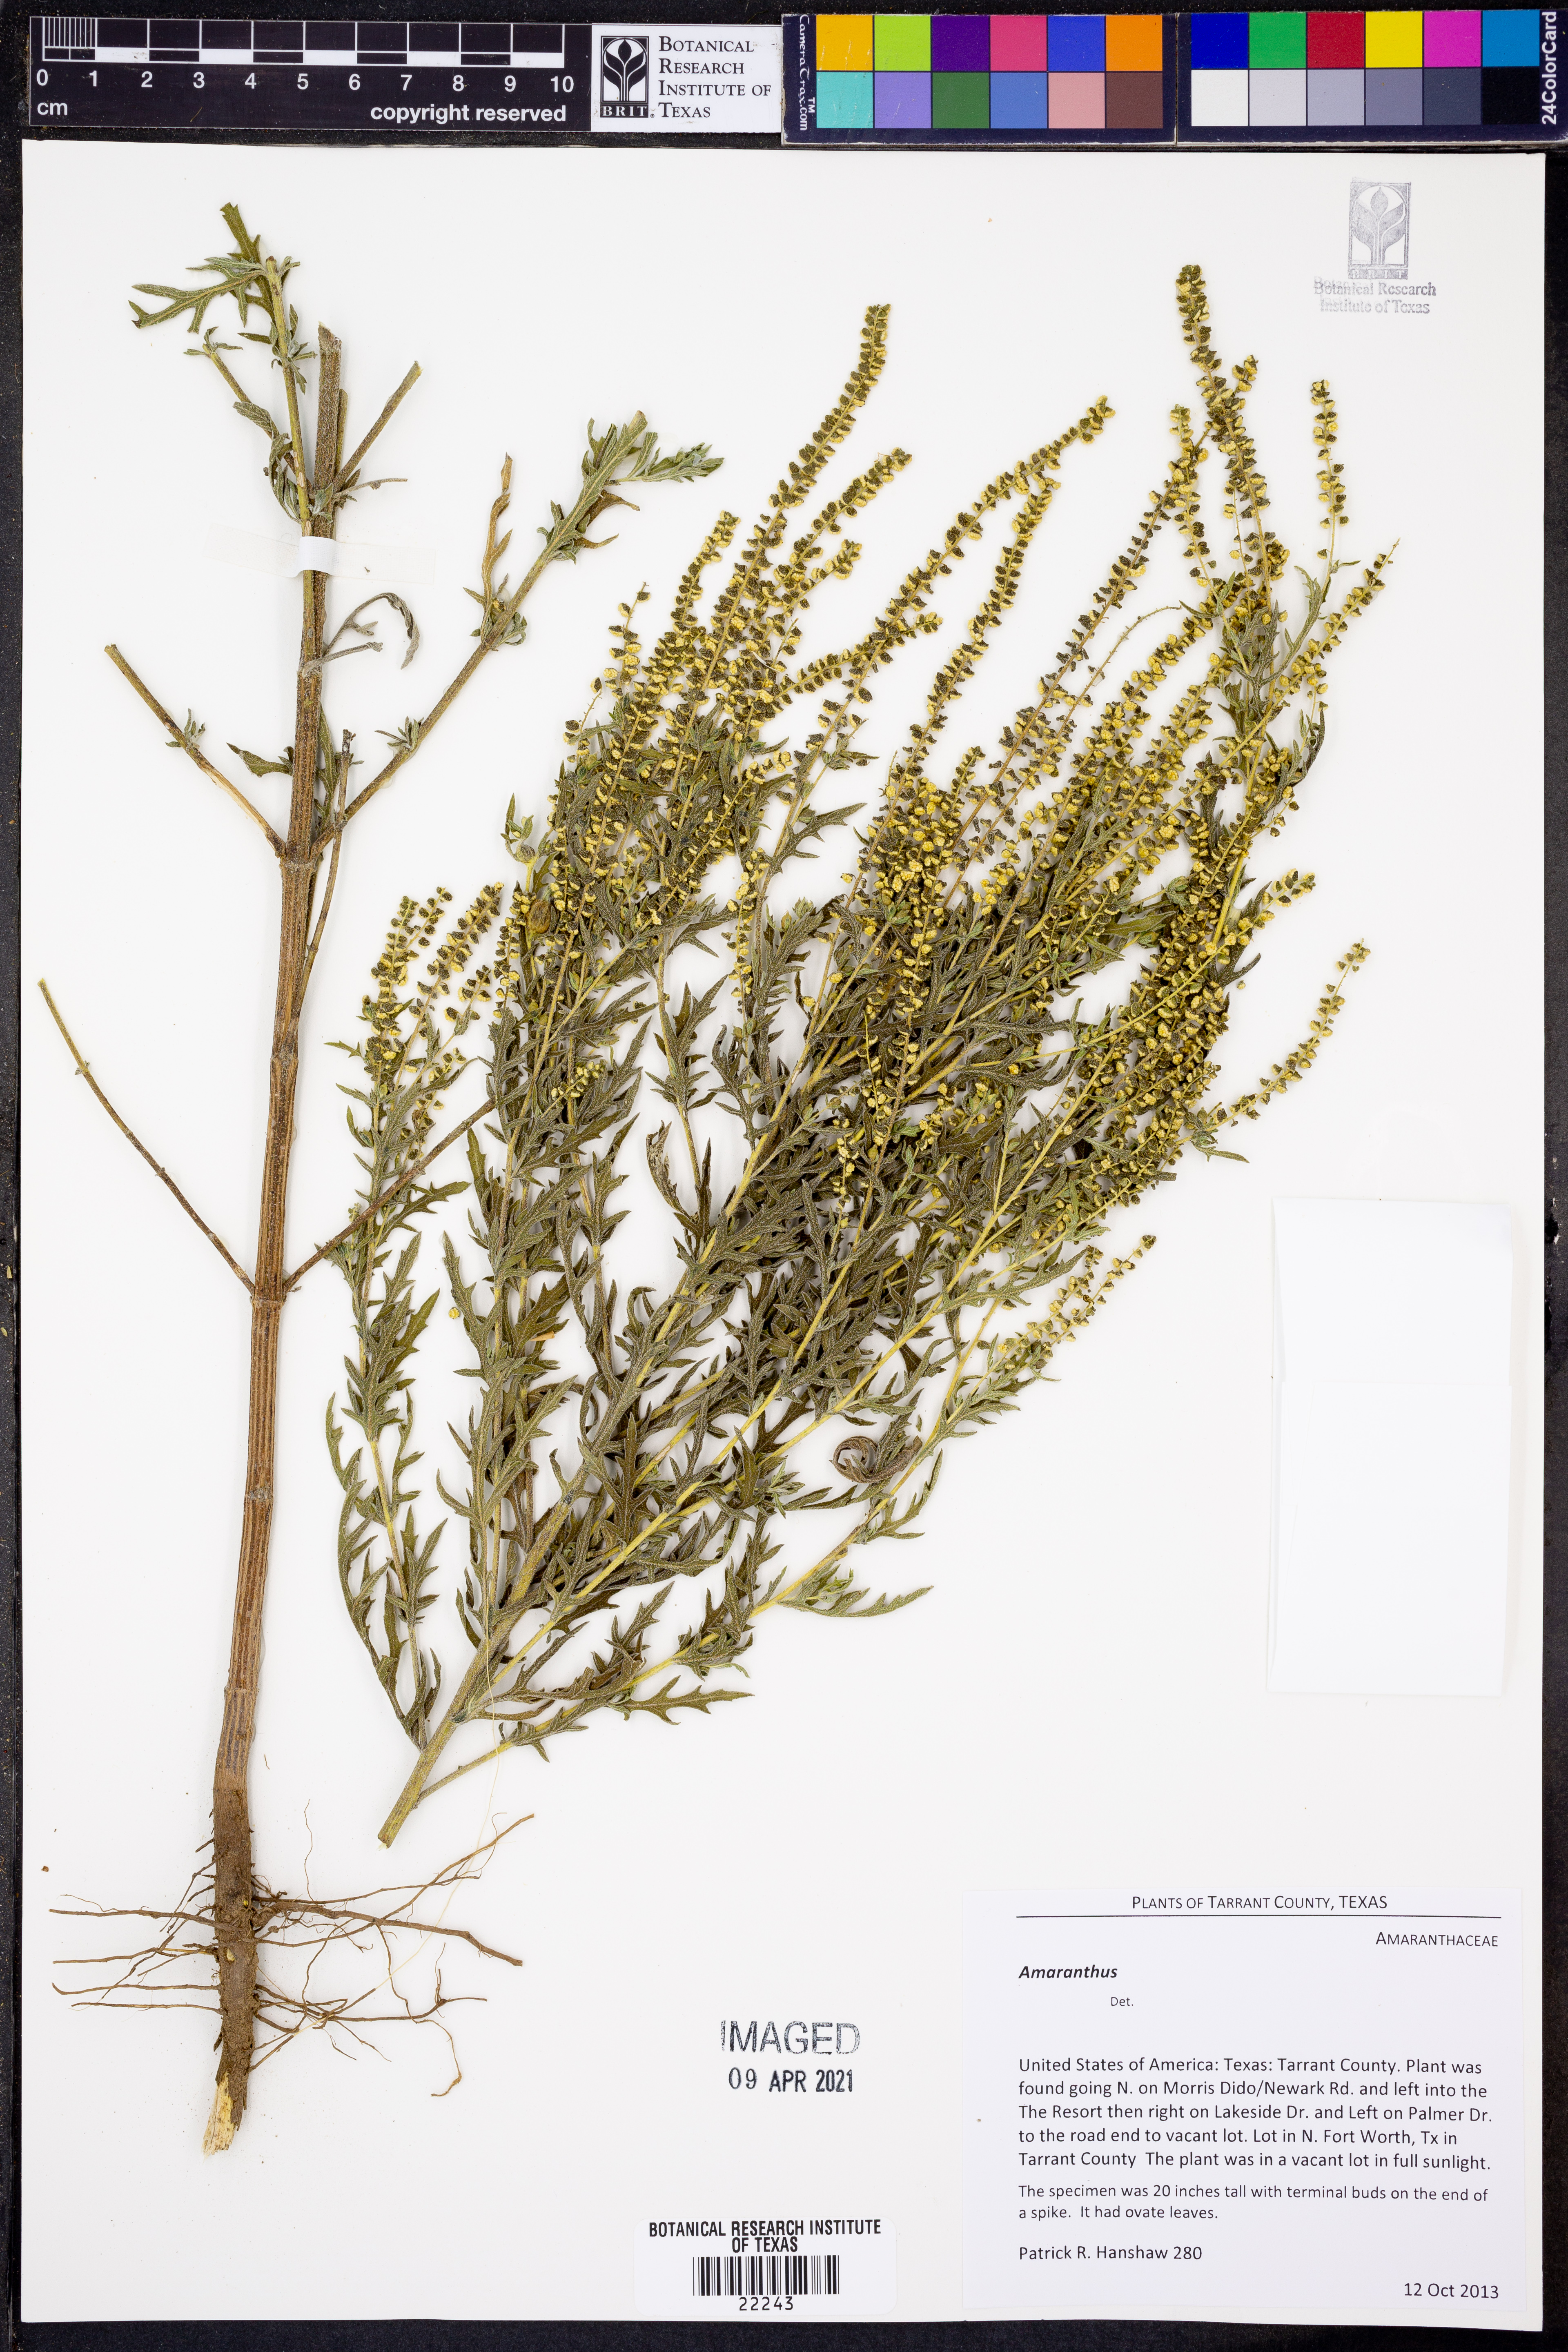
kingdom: Plantae
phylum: Tracheophyta
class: Magnoliopsida
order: Asterales
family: Asteraceae
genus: Ambrosia
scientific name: Ambrosia
